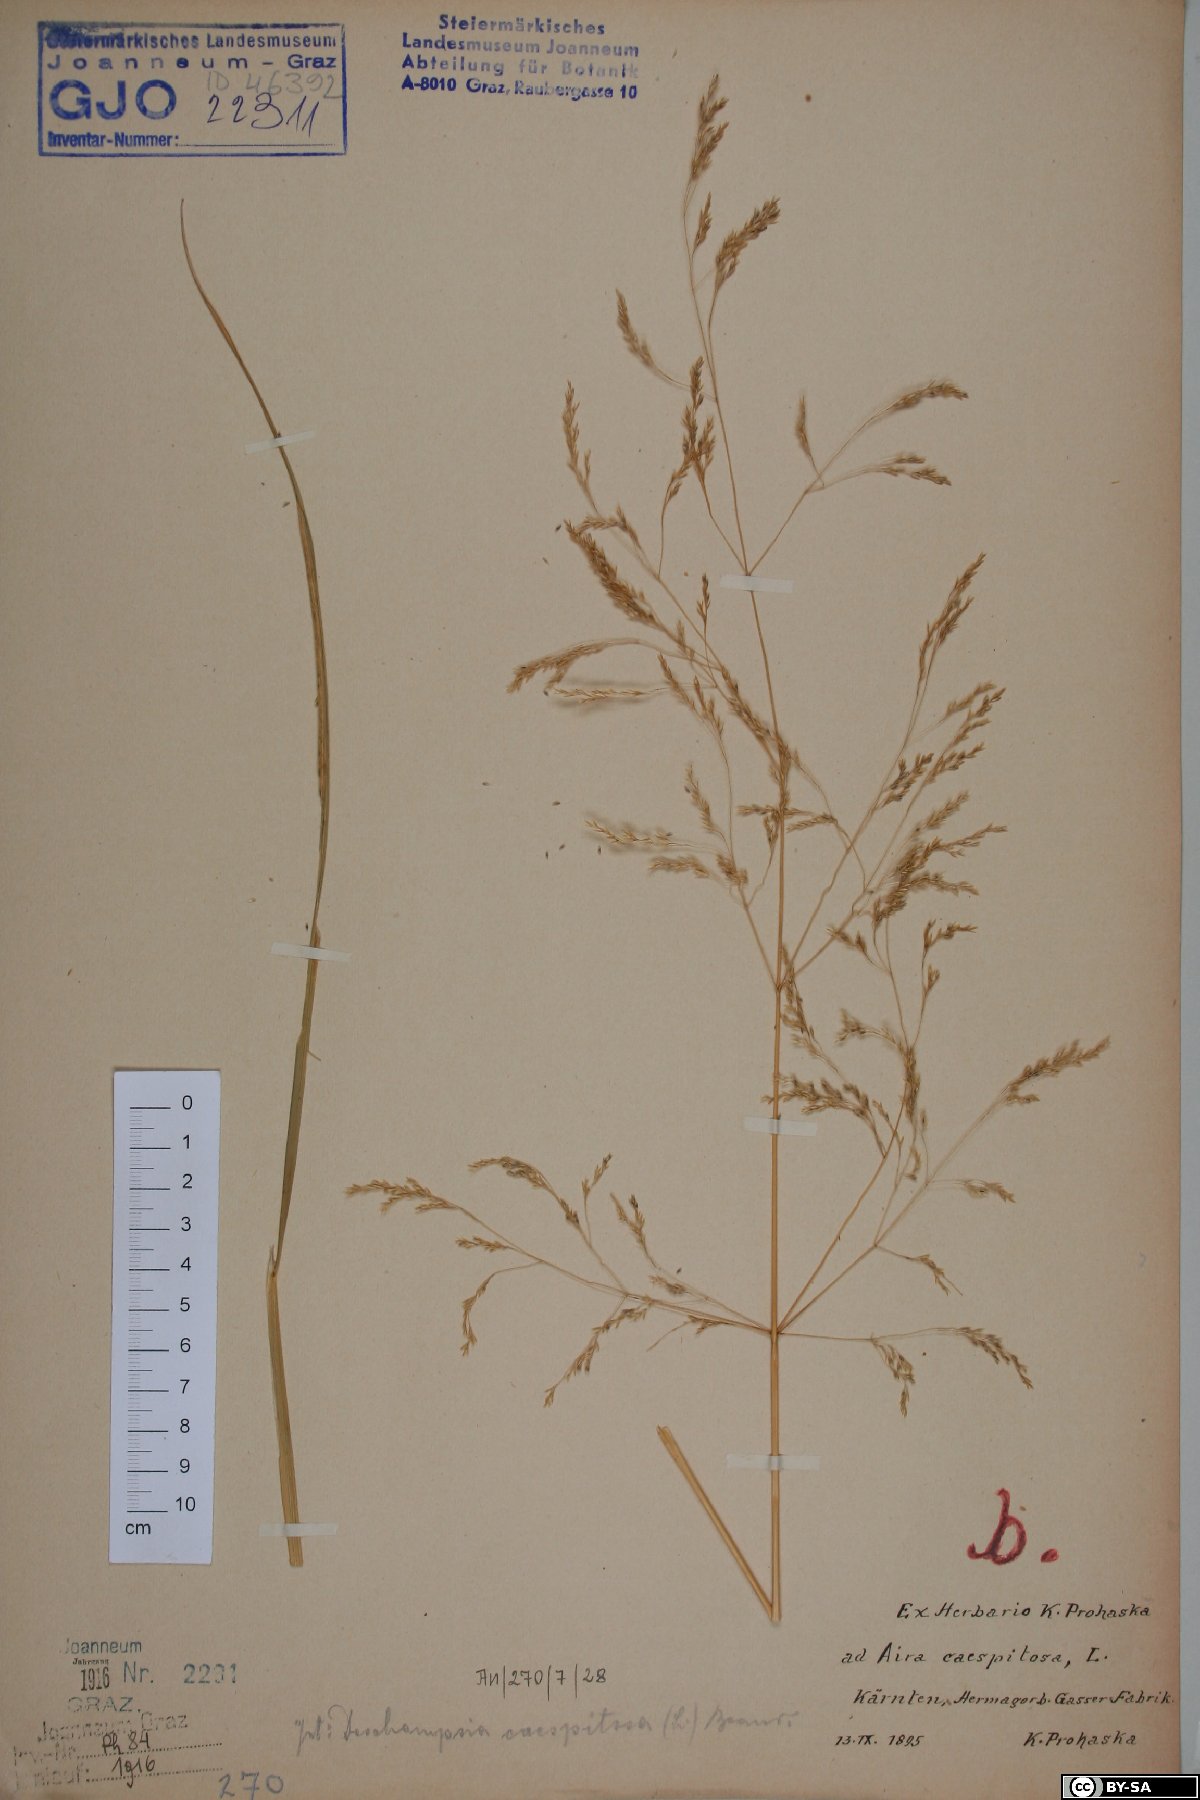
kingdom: Plantae
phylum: Tracheophyta
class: Liliopsida
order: Poales
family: Poaceae
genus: Deschampsia
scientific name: Deschampsia cespitosa
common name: Tufted hair-grass
